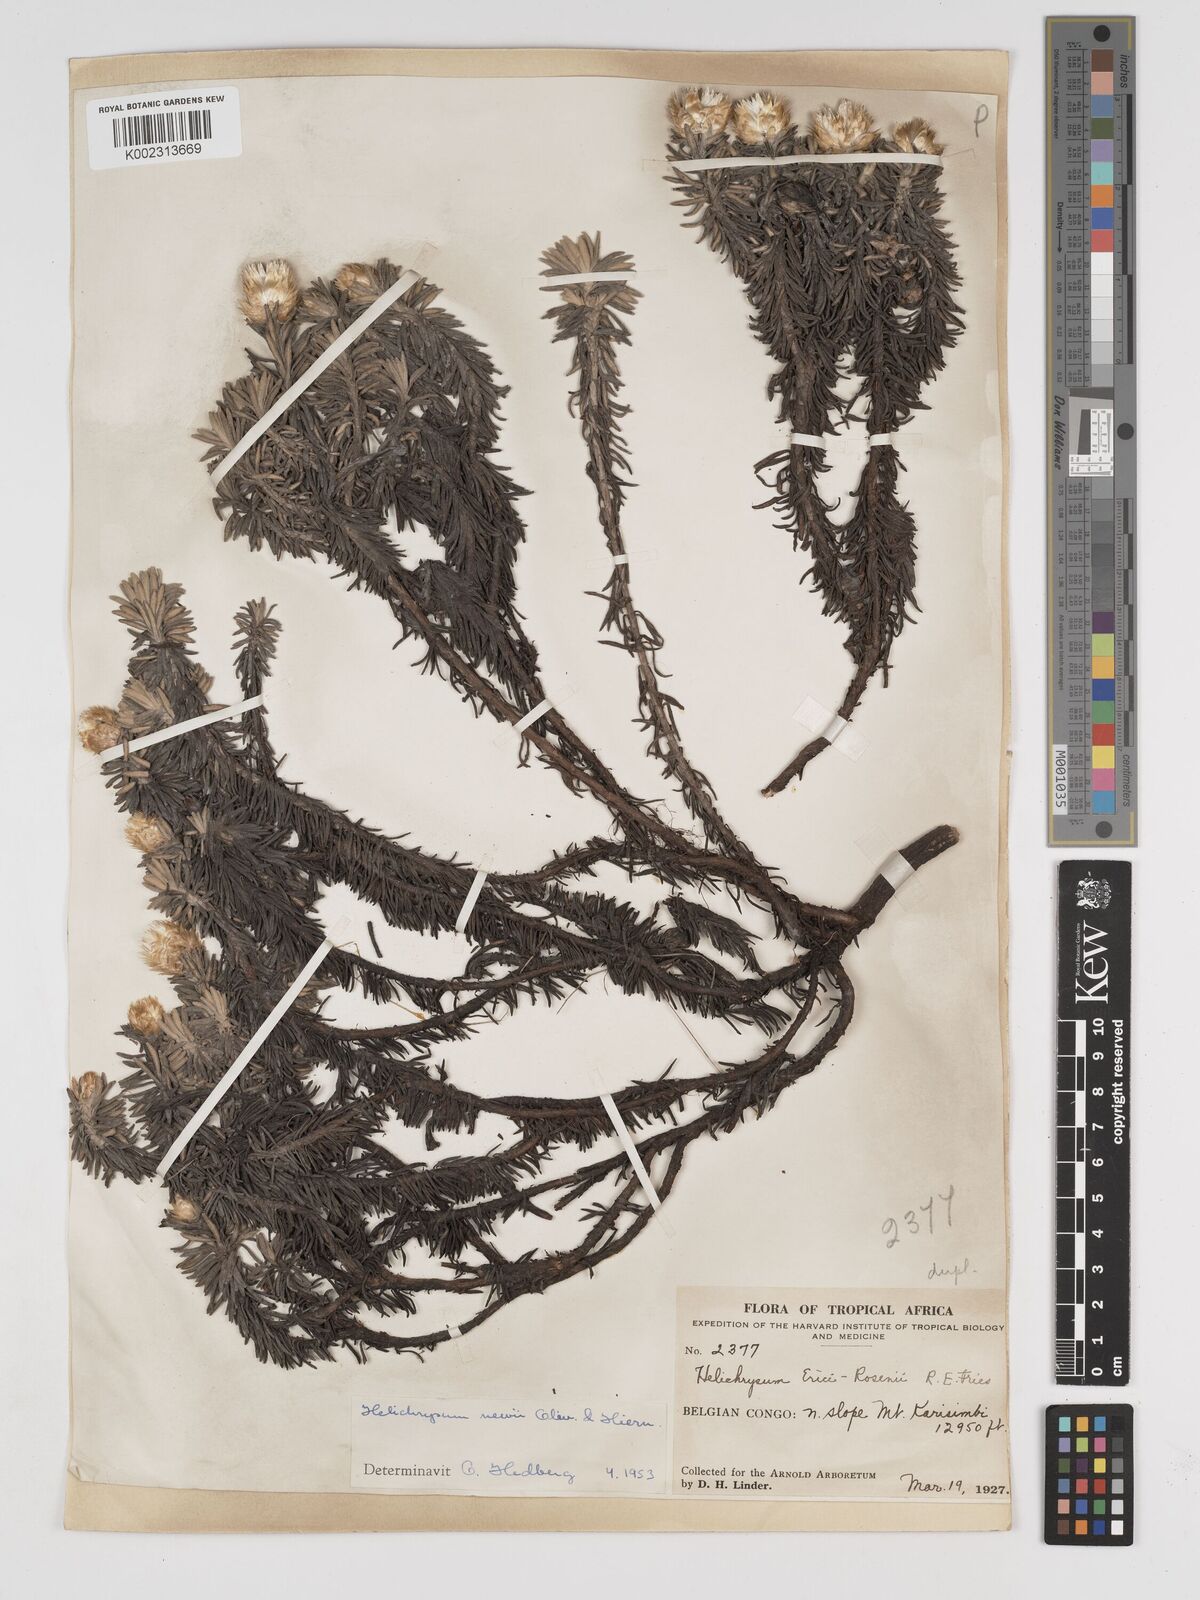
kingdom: Plantae
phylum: Tracheophyta
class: Magnoliopsida
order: Asterales
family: Asteraceae
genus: Helichrysum
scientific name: Helichrysum newii
